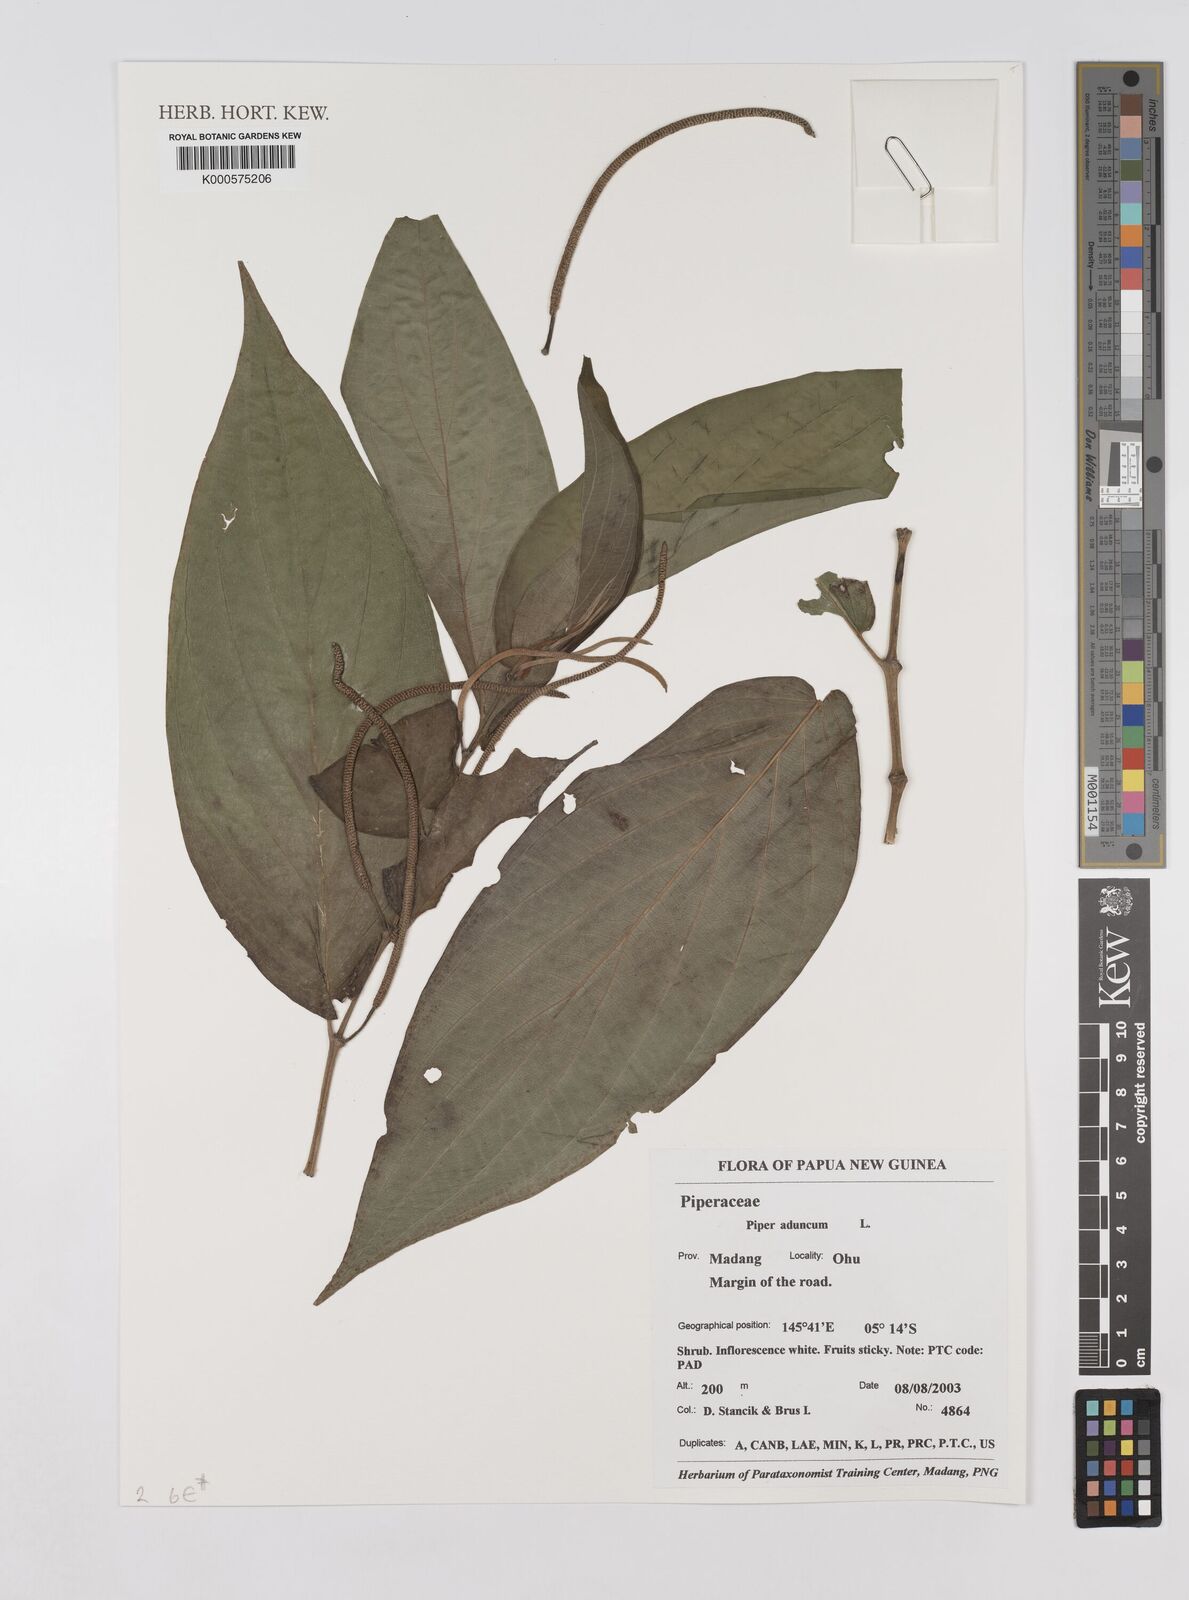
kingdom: Plantae
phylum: Tracheophyta
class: Magnoliopsida
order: Piperales
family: Piperaceae
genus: Piper
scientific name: Piper aduncum
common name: Spiked pepper
